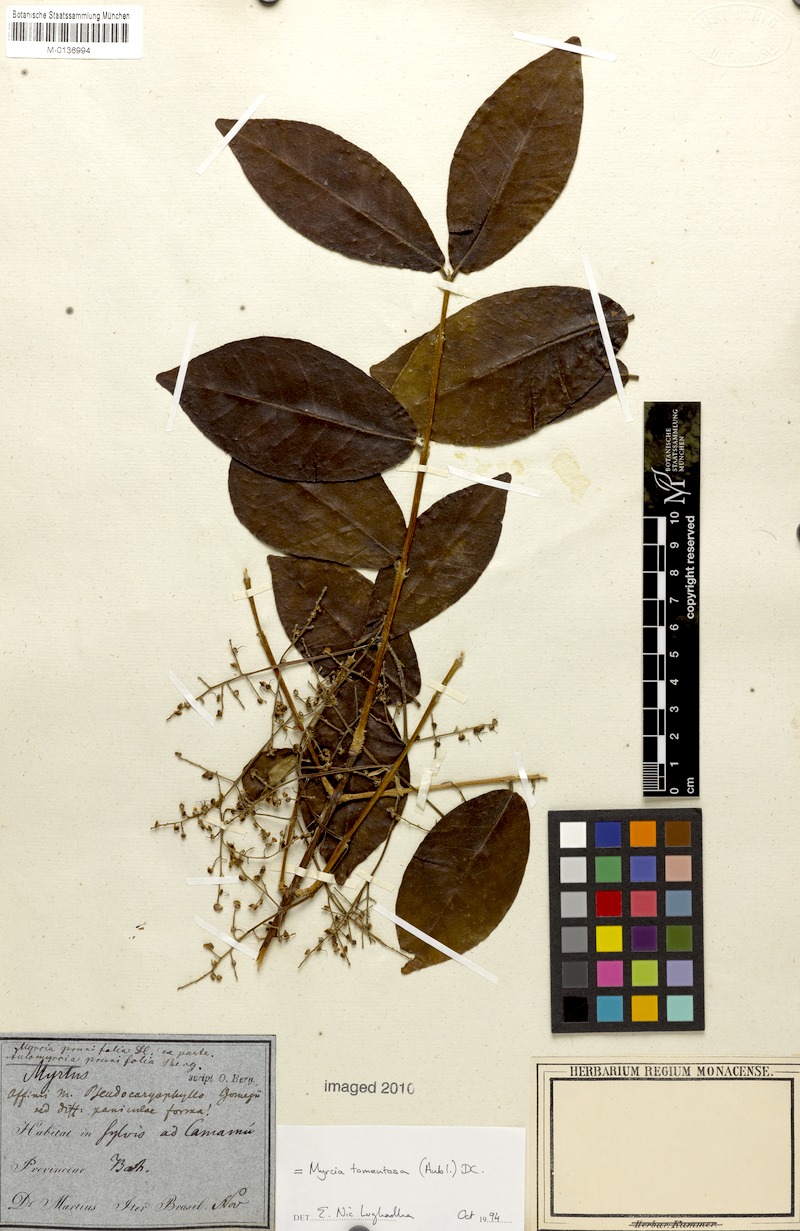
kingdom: Plantae
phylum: Tracheophyta
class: Magnoliopsida
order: Myrtales
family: Myrtaceae
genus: Myrcia
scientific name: Myrcia tomentosa
